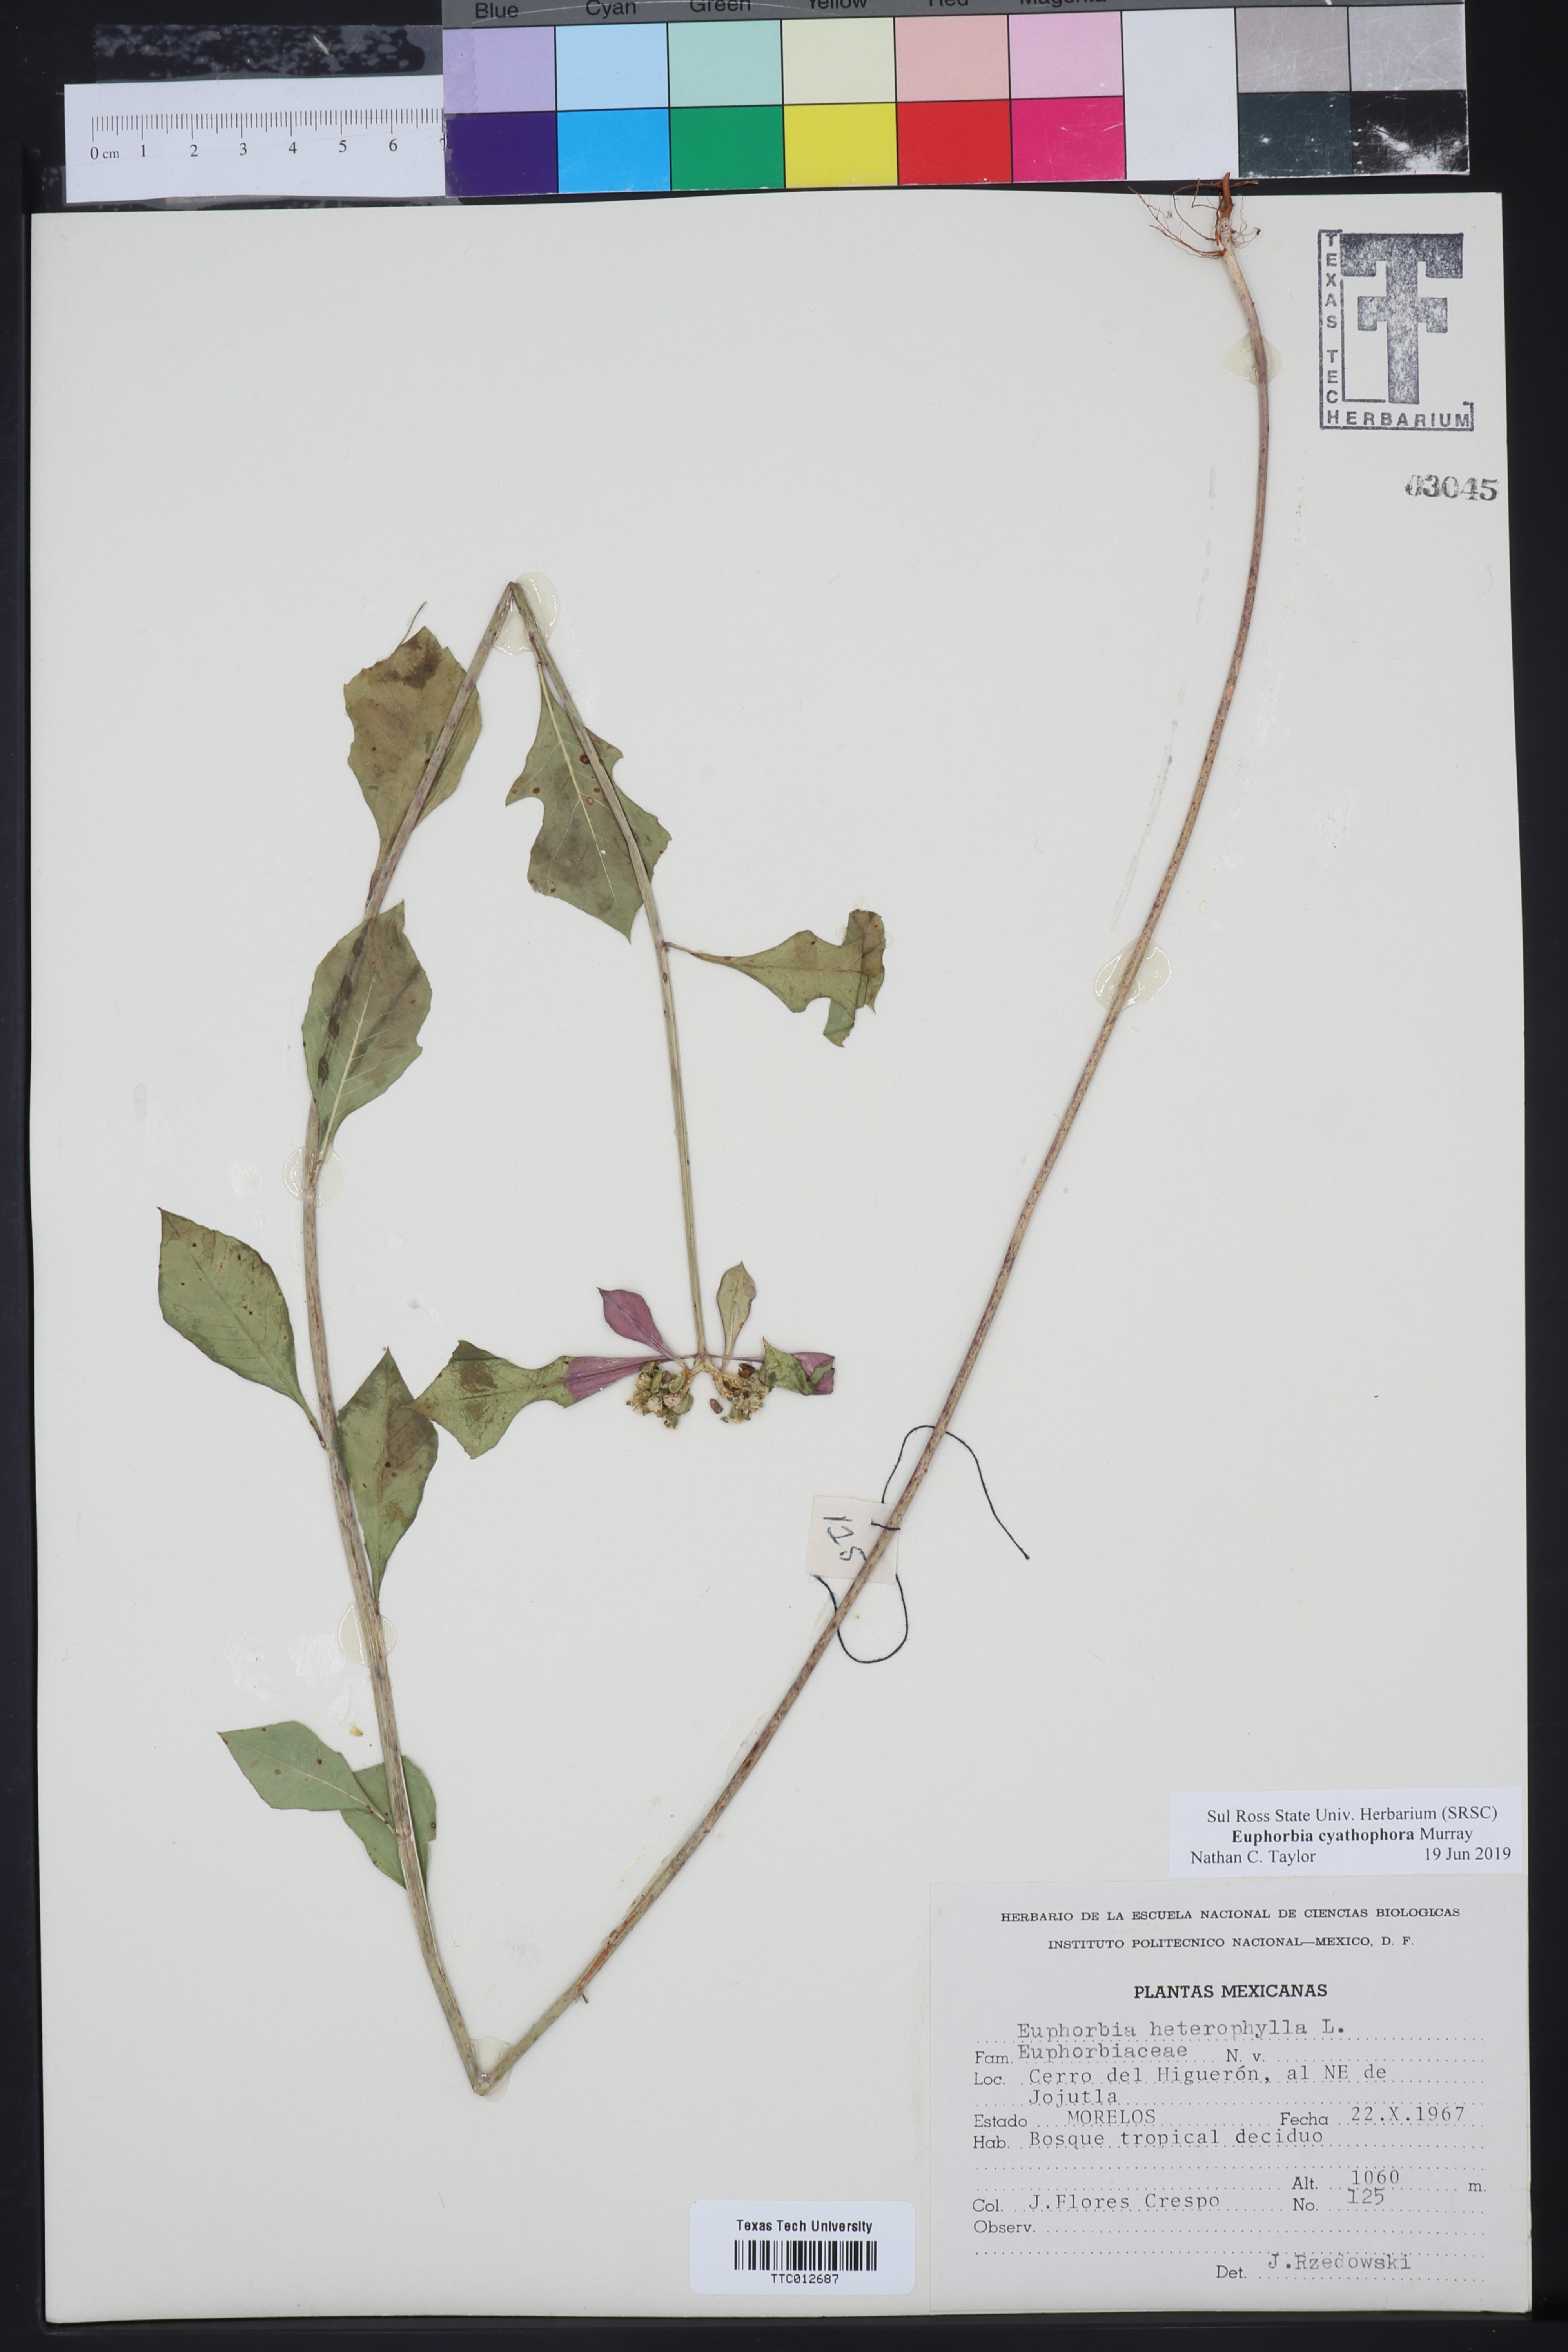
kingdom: Plantae
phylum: Tracheophyta
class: Magnoliopsida
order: Malpighiales
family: Euphorbiaceae
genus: Euphorbia
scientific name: Euphorbia heterophylla
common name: Mexican fireplant
